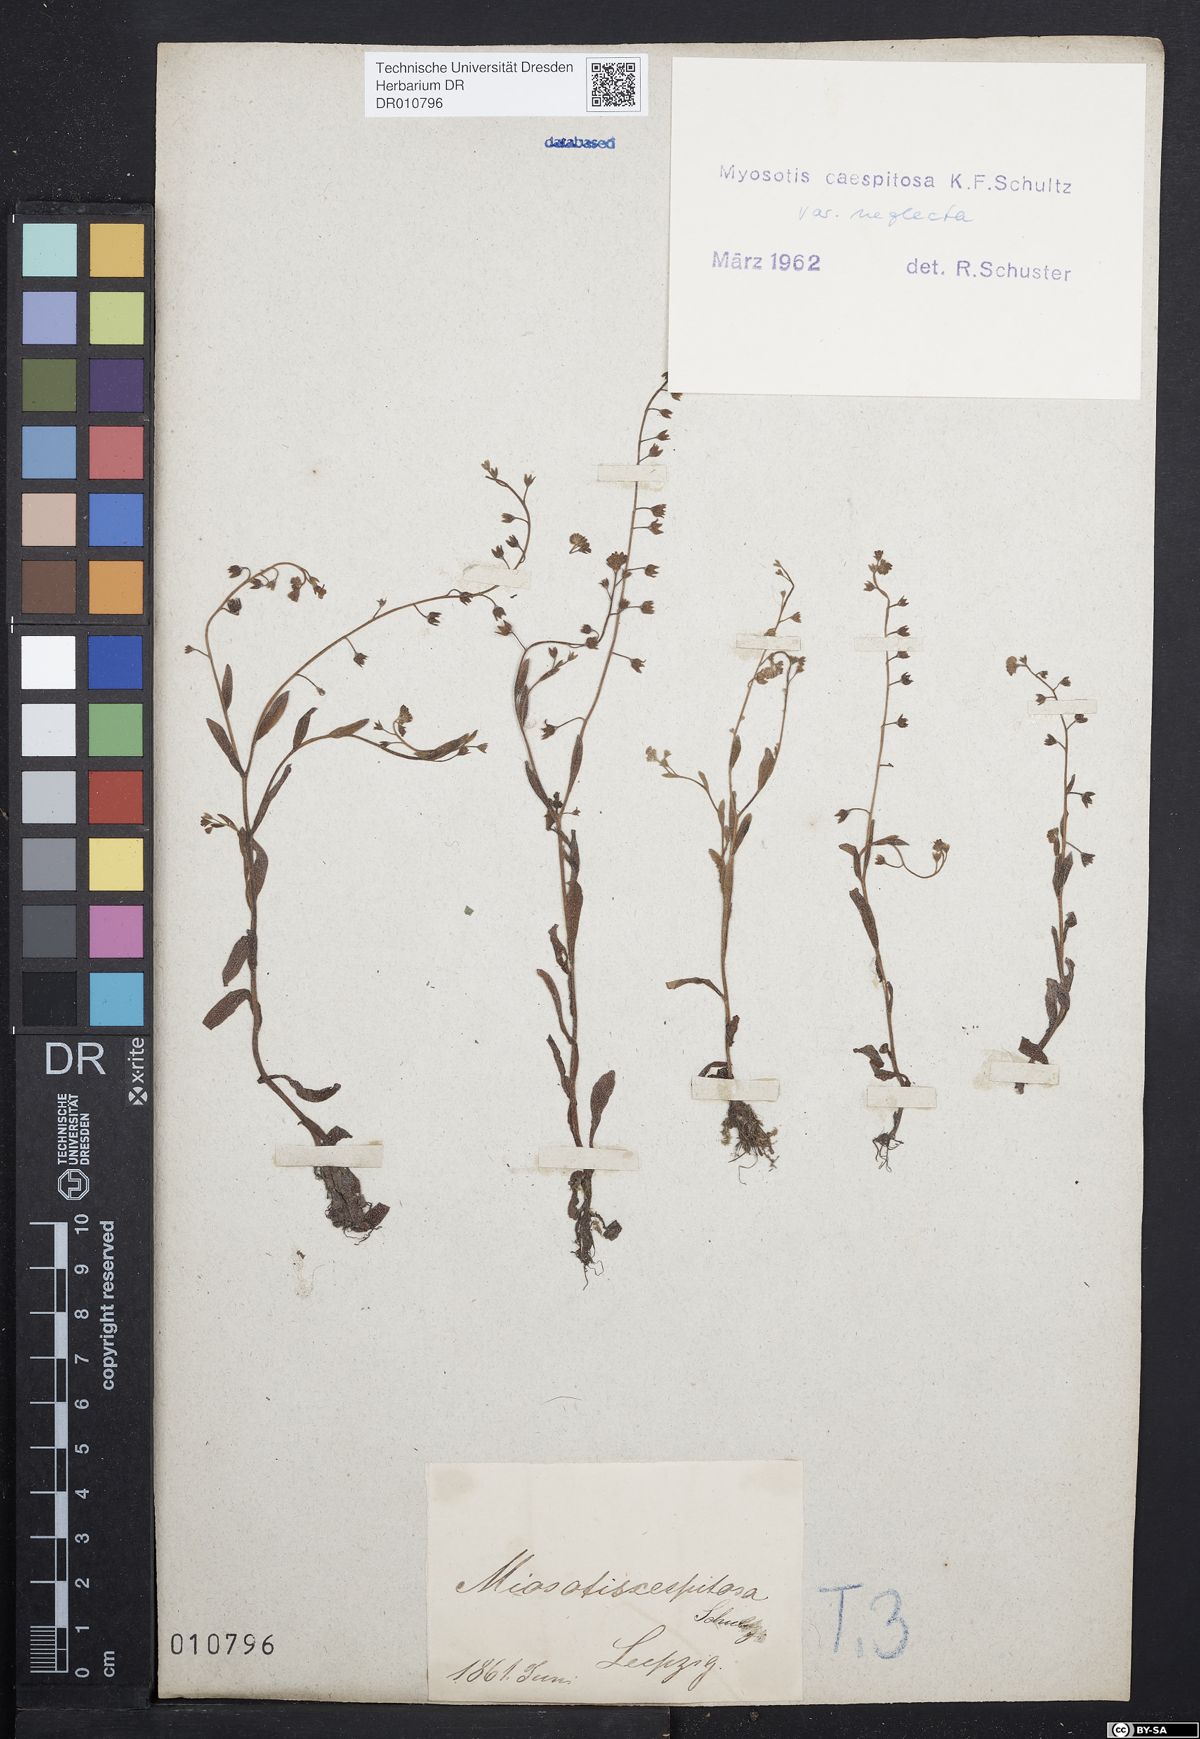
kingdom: Plantae
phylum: Tracheophyta
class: Magnoliopsida
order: Boraginales
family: Boraginaceae
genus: Myosotis
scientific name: Myosotis laxa
